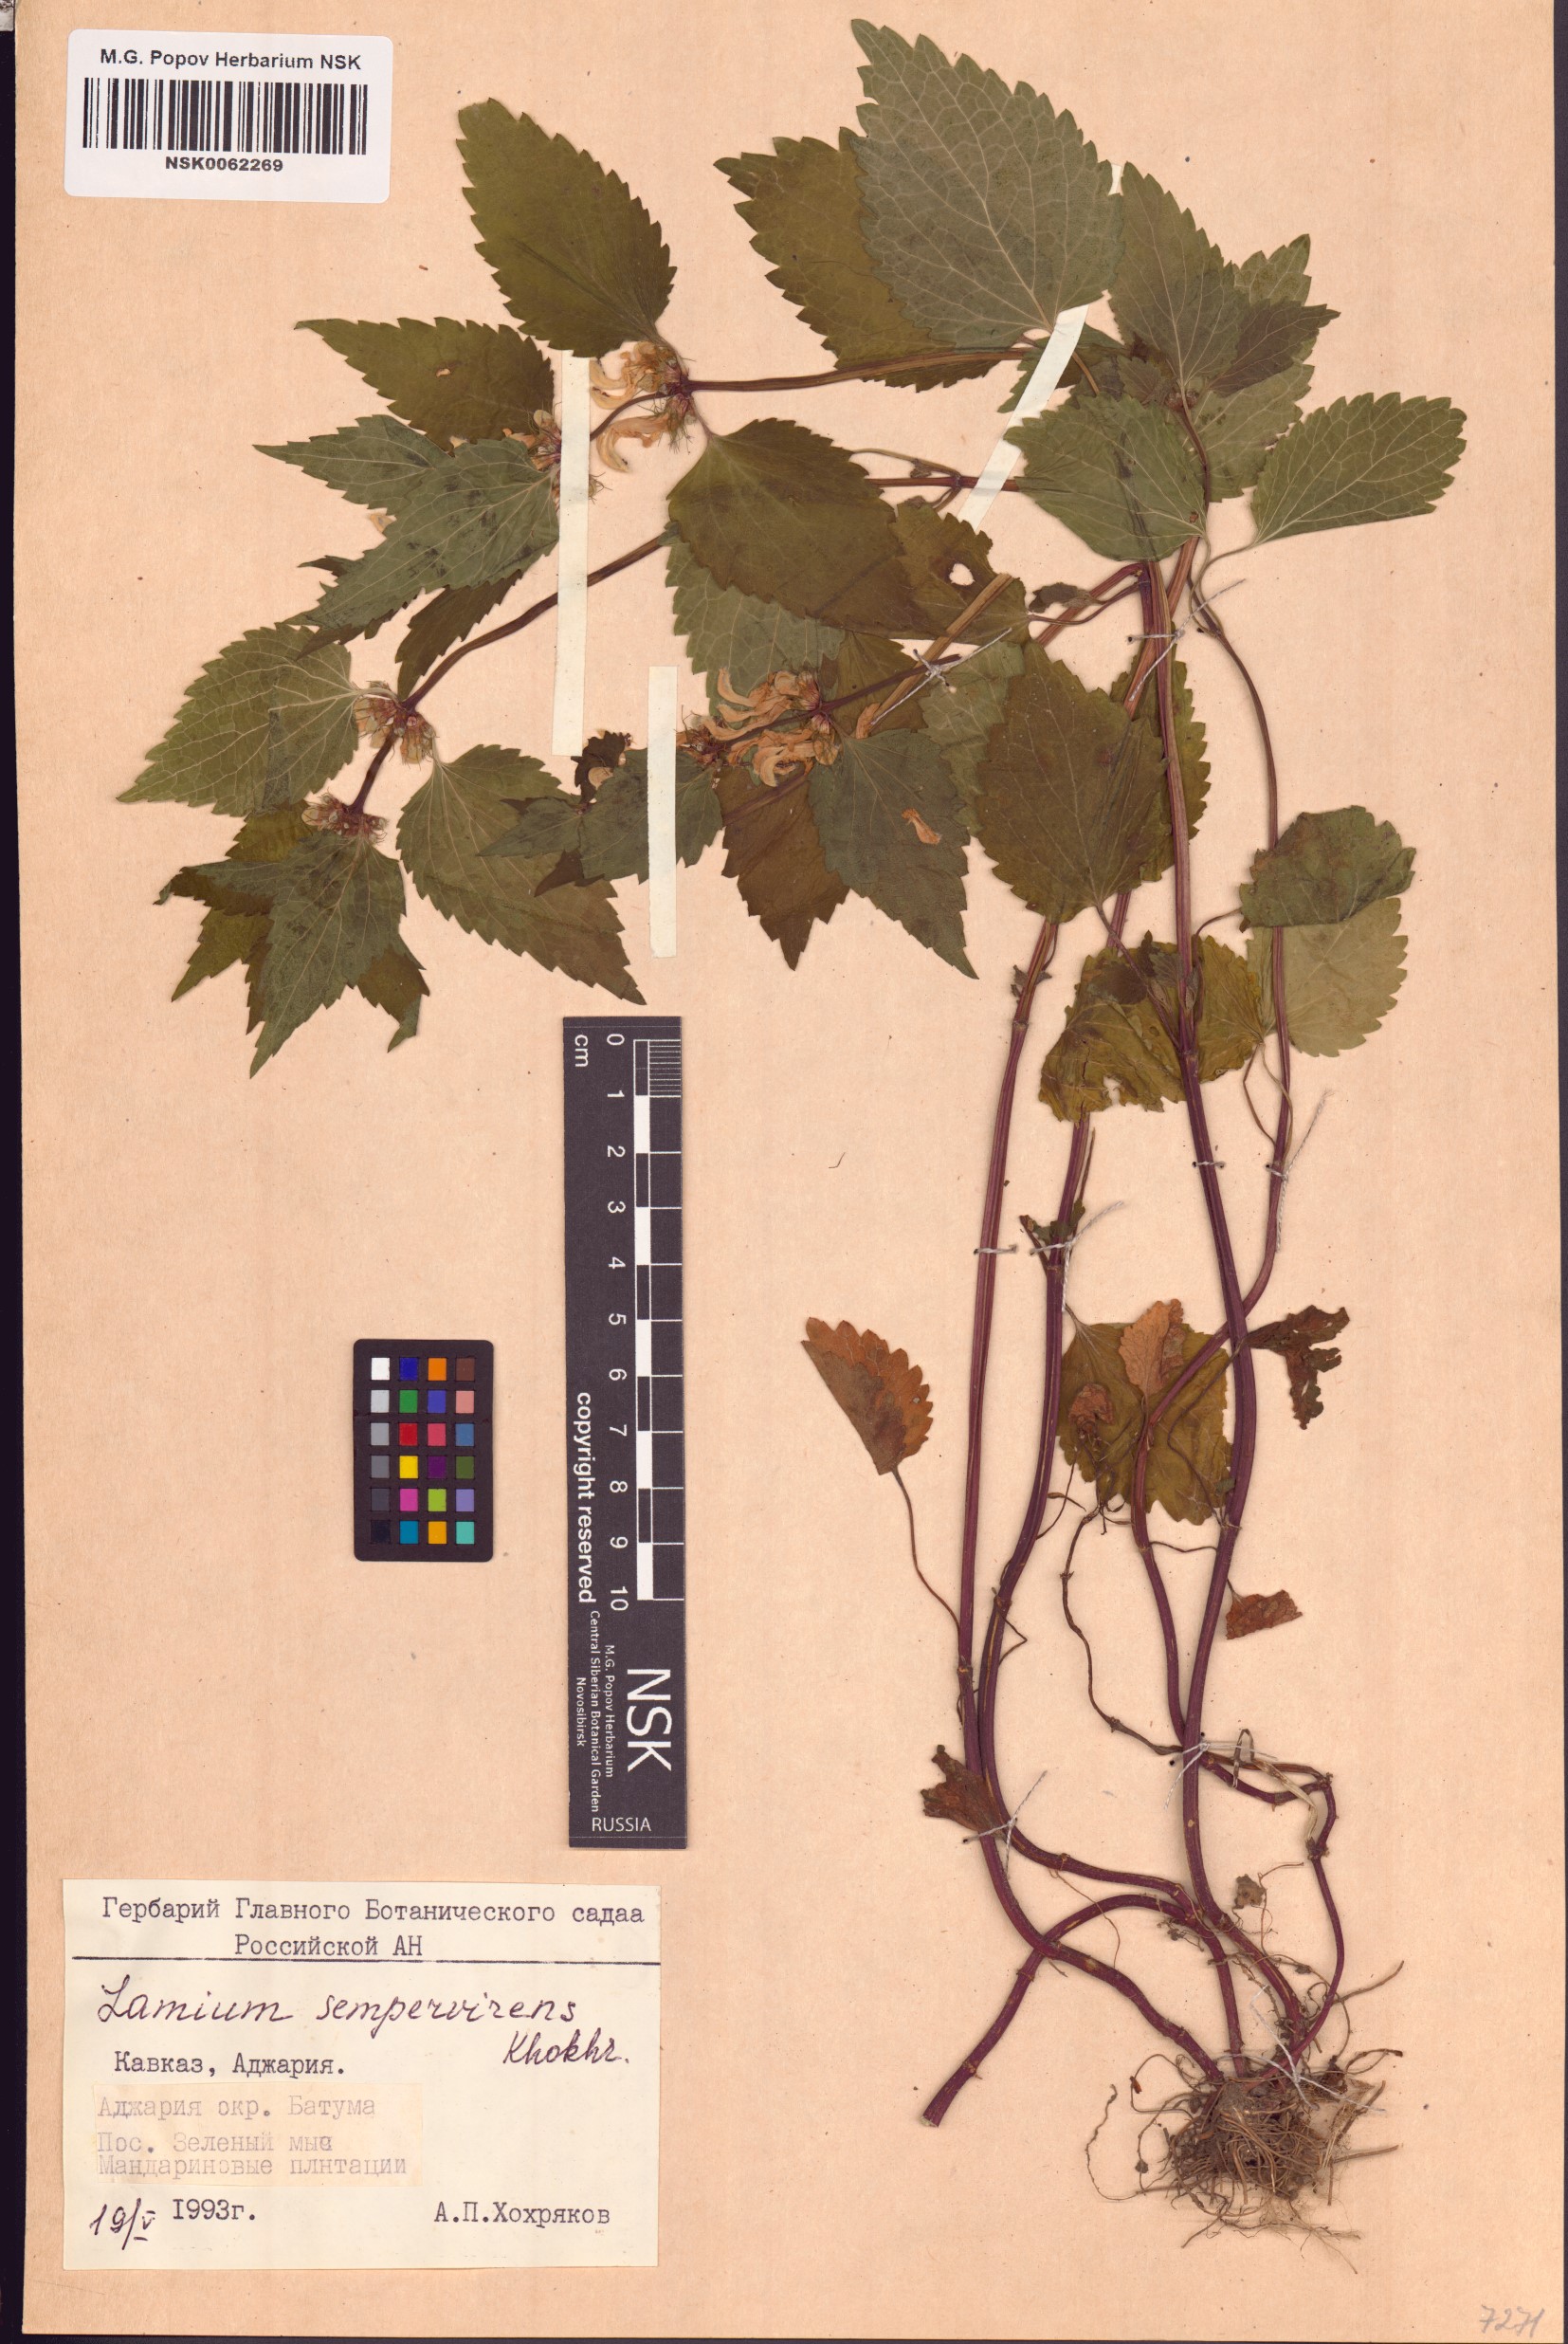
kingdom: Plantae
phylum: Tracheophyta
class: Magnoliopsida
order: Lamiales
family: Lamiaceae
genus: Lamium
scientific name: Lamium album
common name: White dead-nettle
